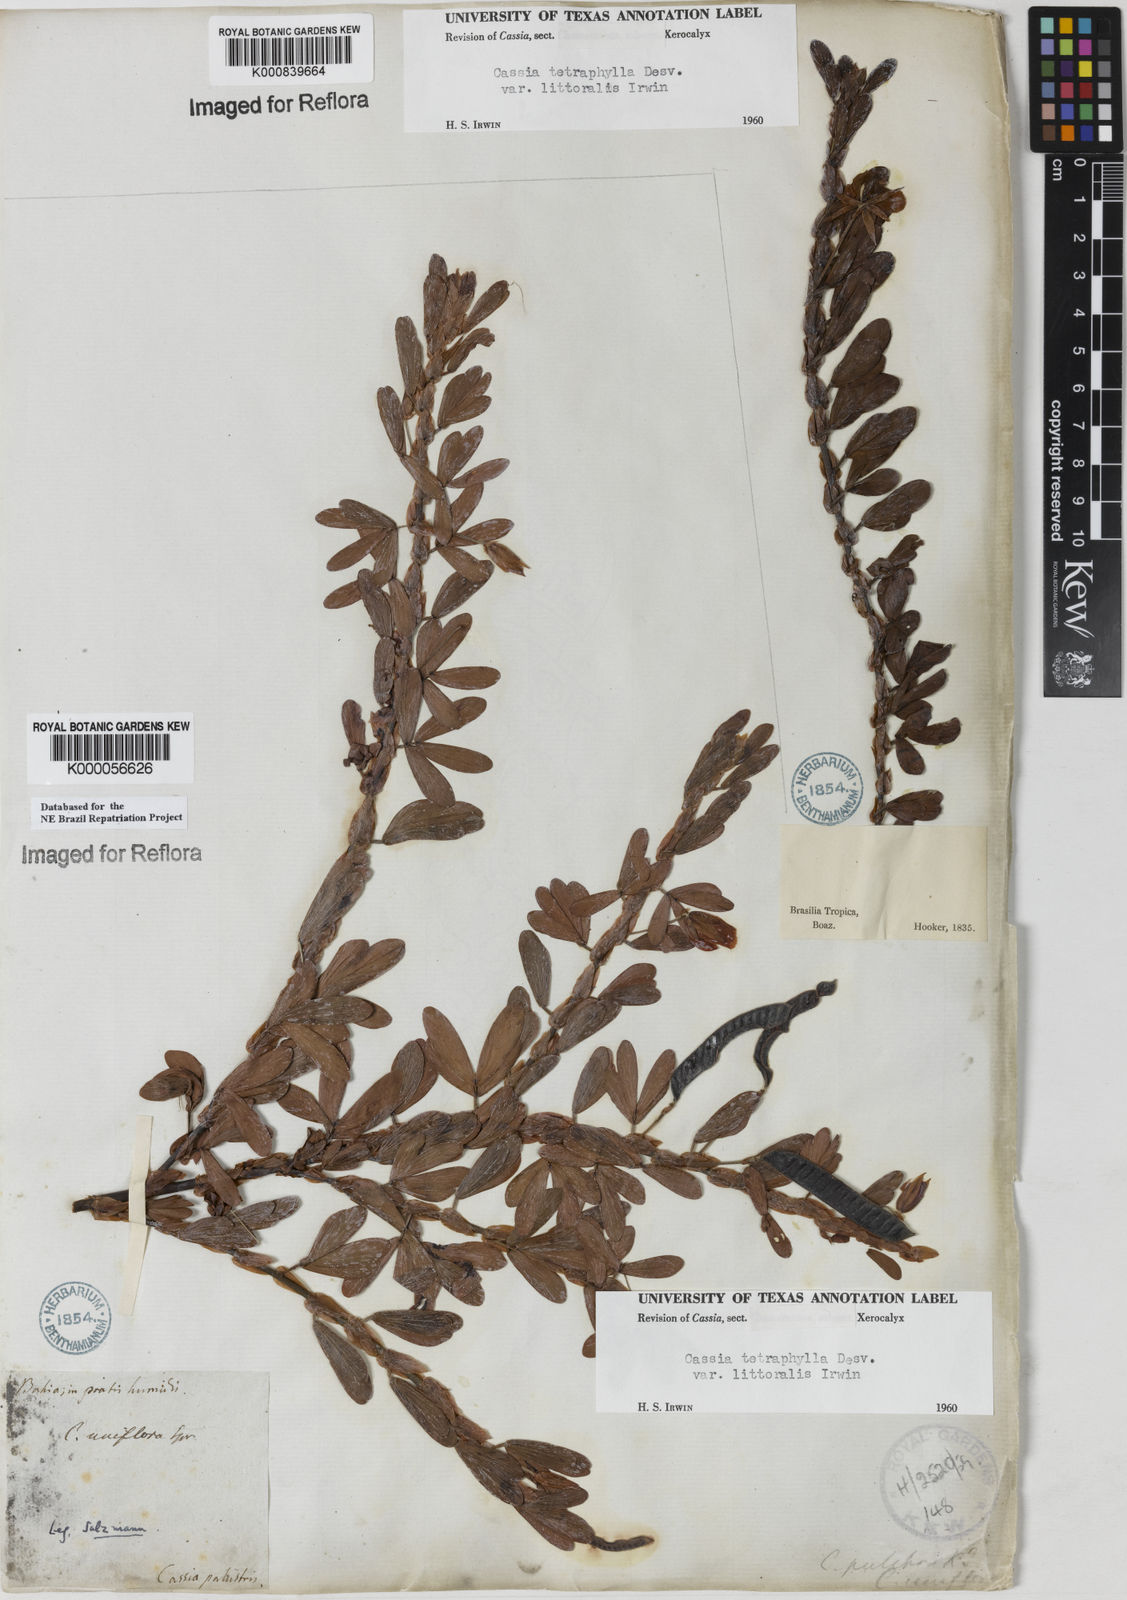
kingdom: Plantae
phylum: Tracheophyta
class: Magnoliopsida
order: Fabales
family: Fabaceae
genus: Chamaecrista
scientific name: Chamaecrista desvauxii
